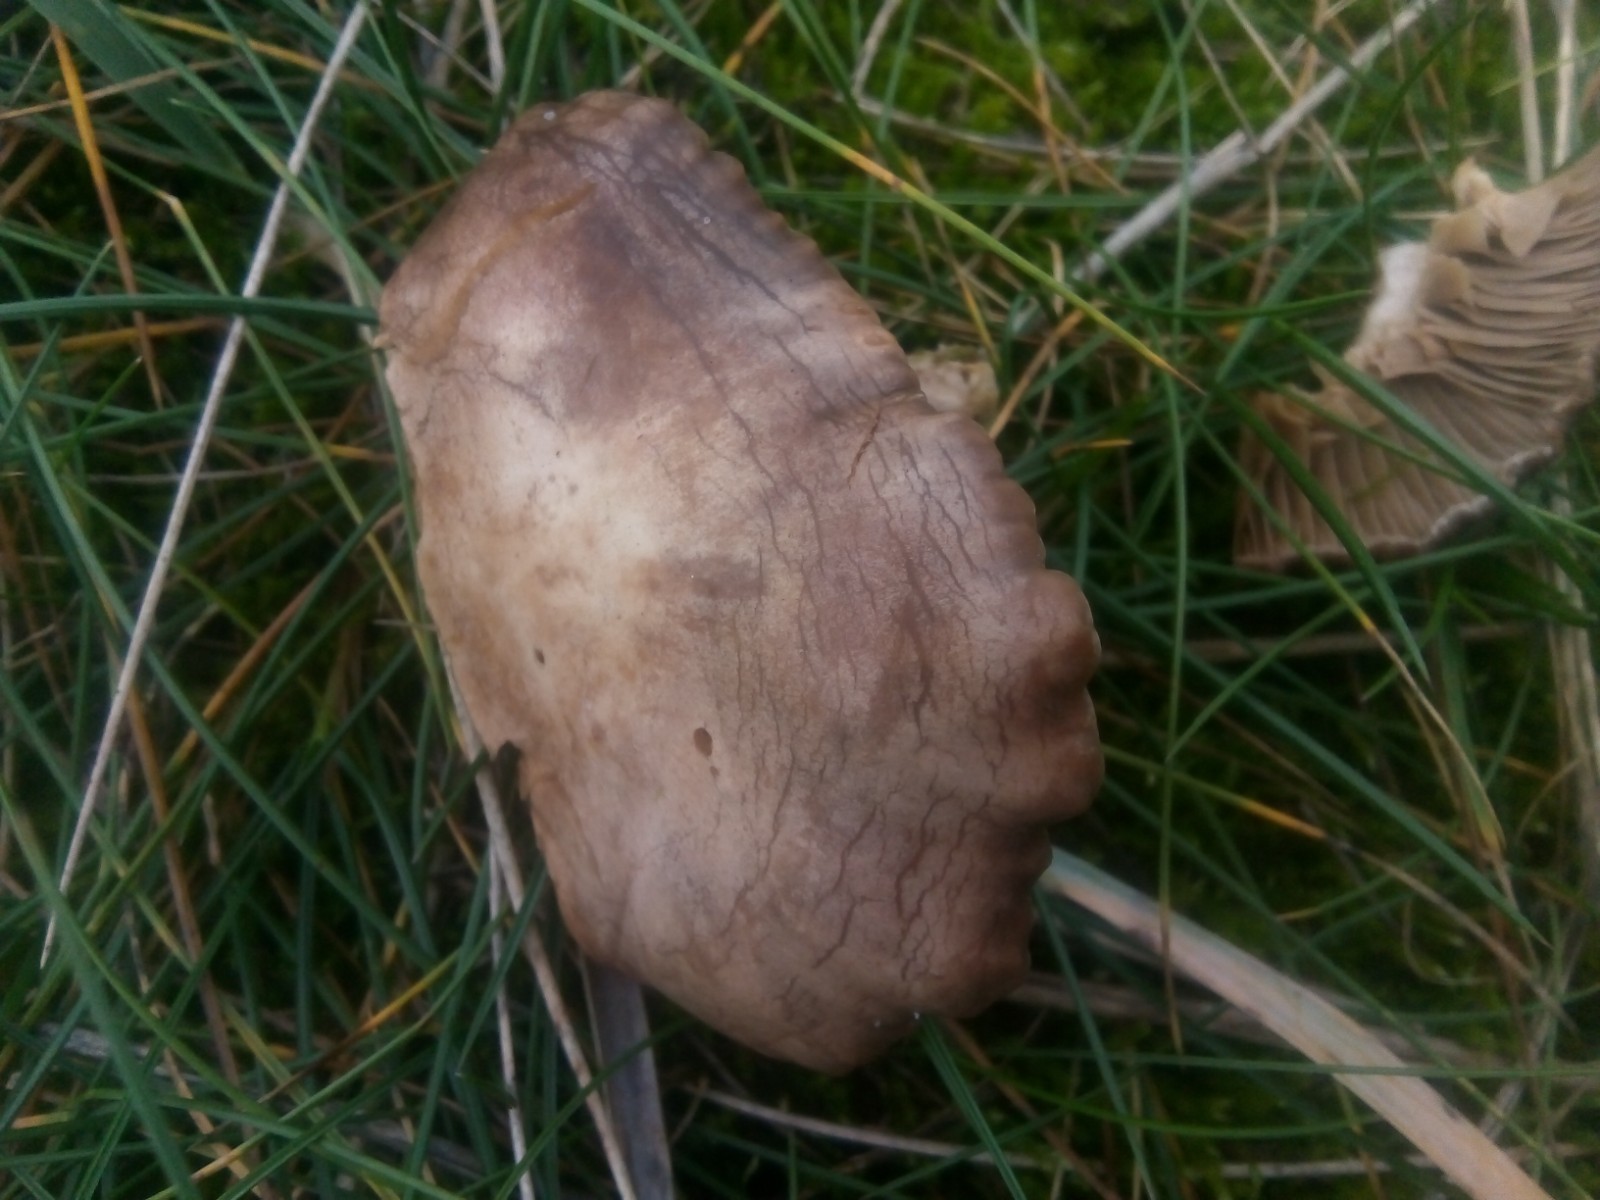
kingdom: Fungi
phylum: Basidiomycota
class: Agaricomycetes
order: Agaricales
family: Tricholomataceae
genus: Lulesia
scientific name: Lulesia
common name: sortnende troldhat
